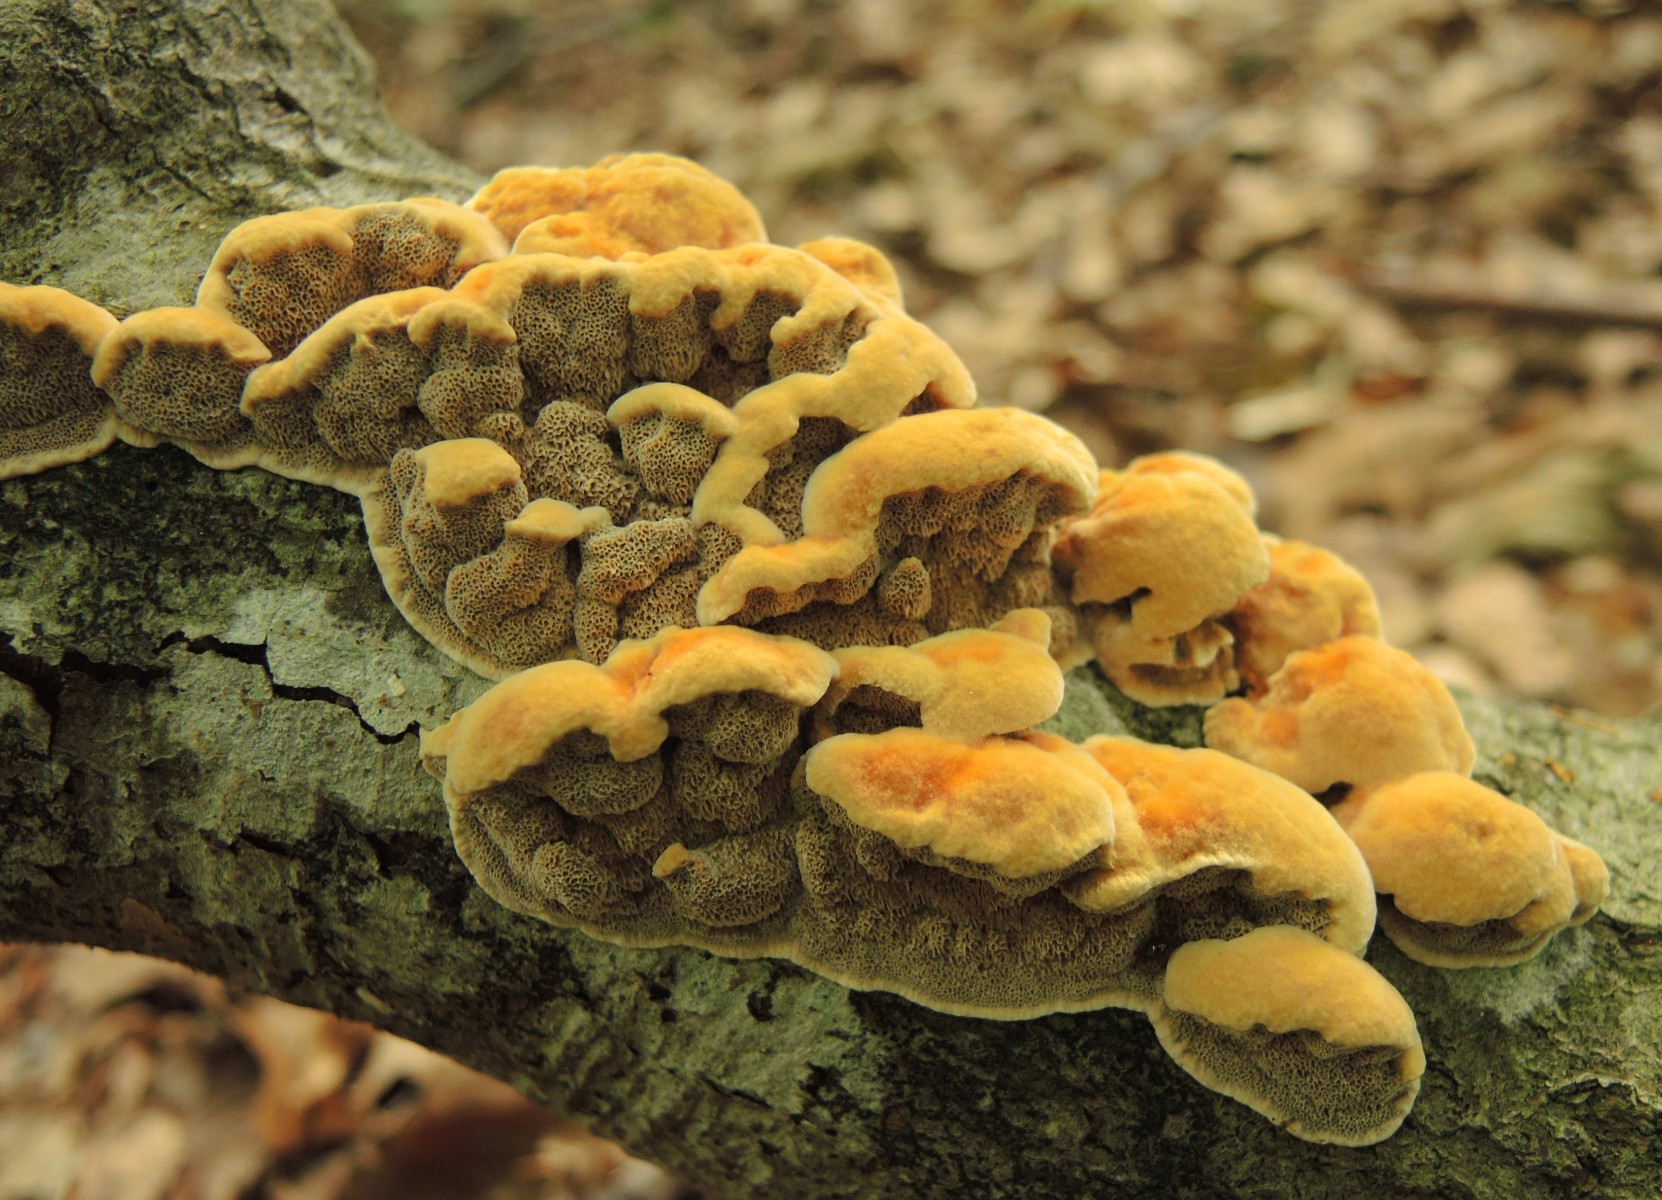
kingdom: Fungi
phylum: Basidiomycota
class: Agaricomycetes
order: Hymenochaetales
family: Hymenochaetaceae
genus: Mensularia
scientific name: Mensularia nodulosa
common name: bøge-spejlporesvamp
